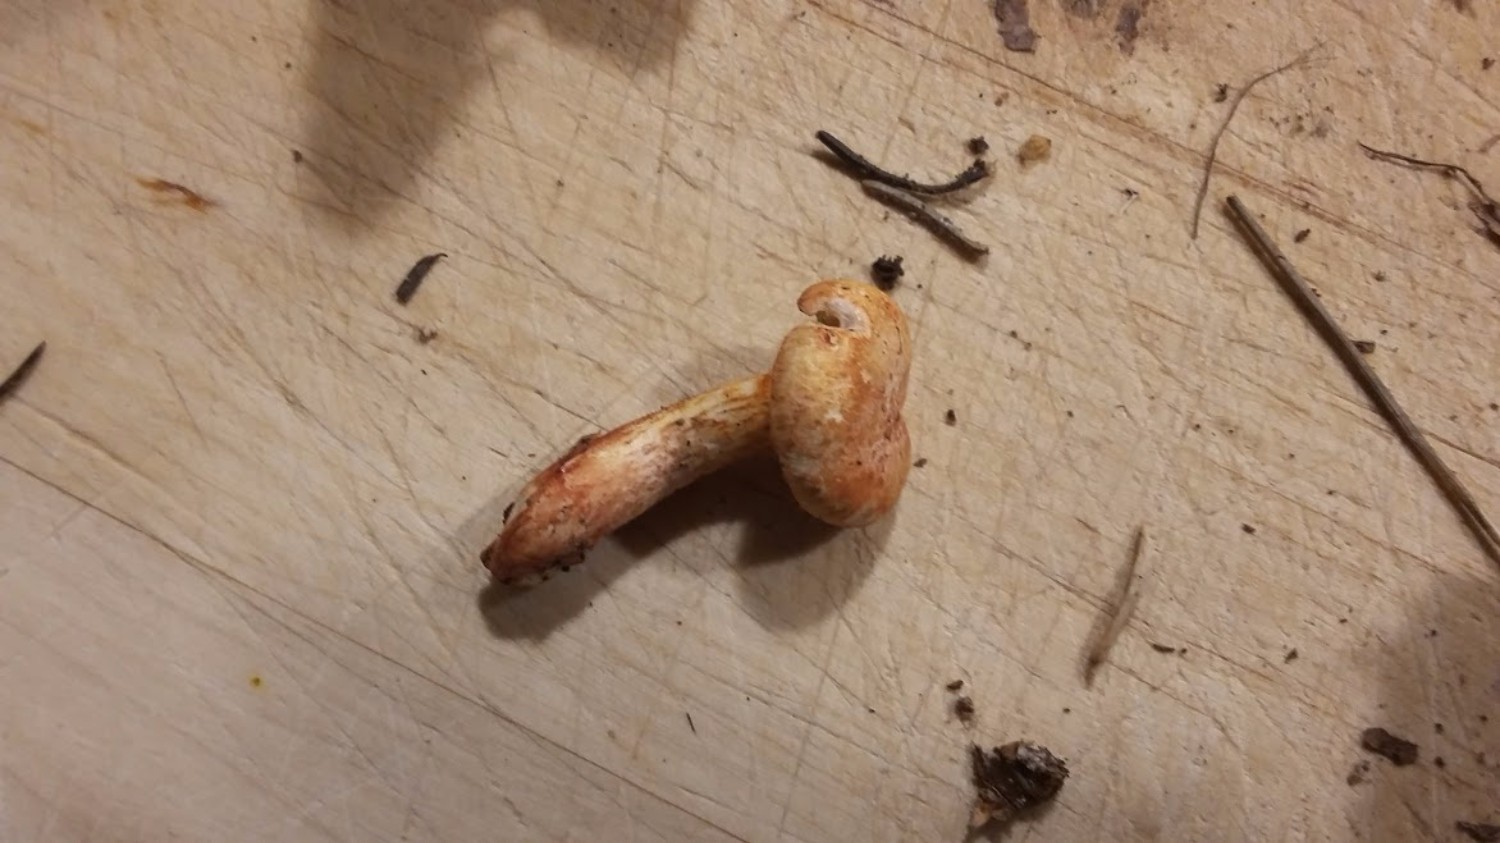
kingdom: Fungi
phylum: Basidiomycota
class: Agaricomycetes
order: Agaricales
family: Cortinariaceae
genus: Cortinarius
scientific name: Cortinarius bolaris
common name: cinnoberskællet slørhat
